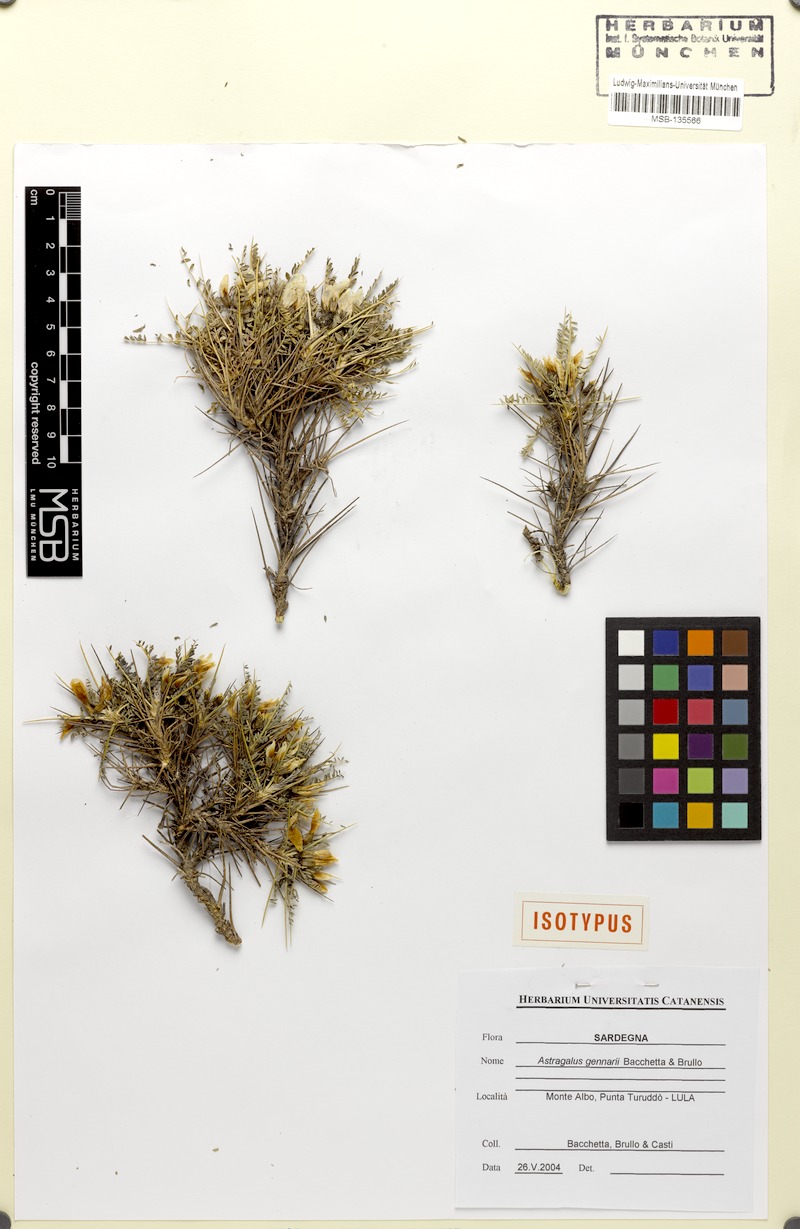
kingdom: Plantae
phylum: Tracheophyta
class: Magnoliopsida
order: Fabales
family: Fabaceae
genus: Astragalus
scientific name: Astragalus gennarii
